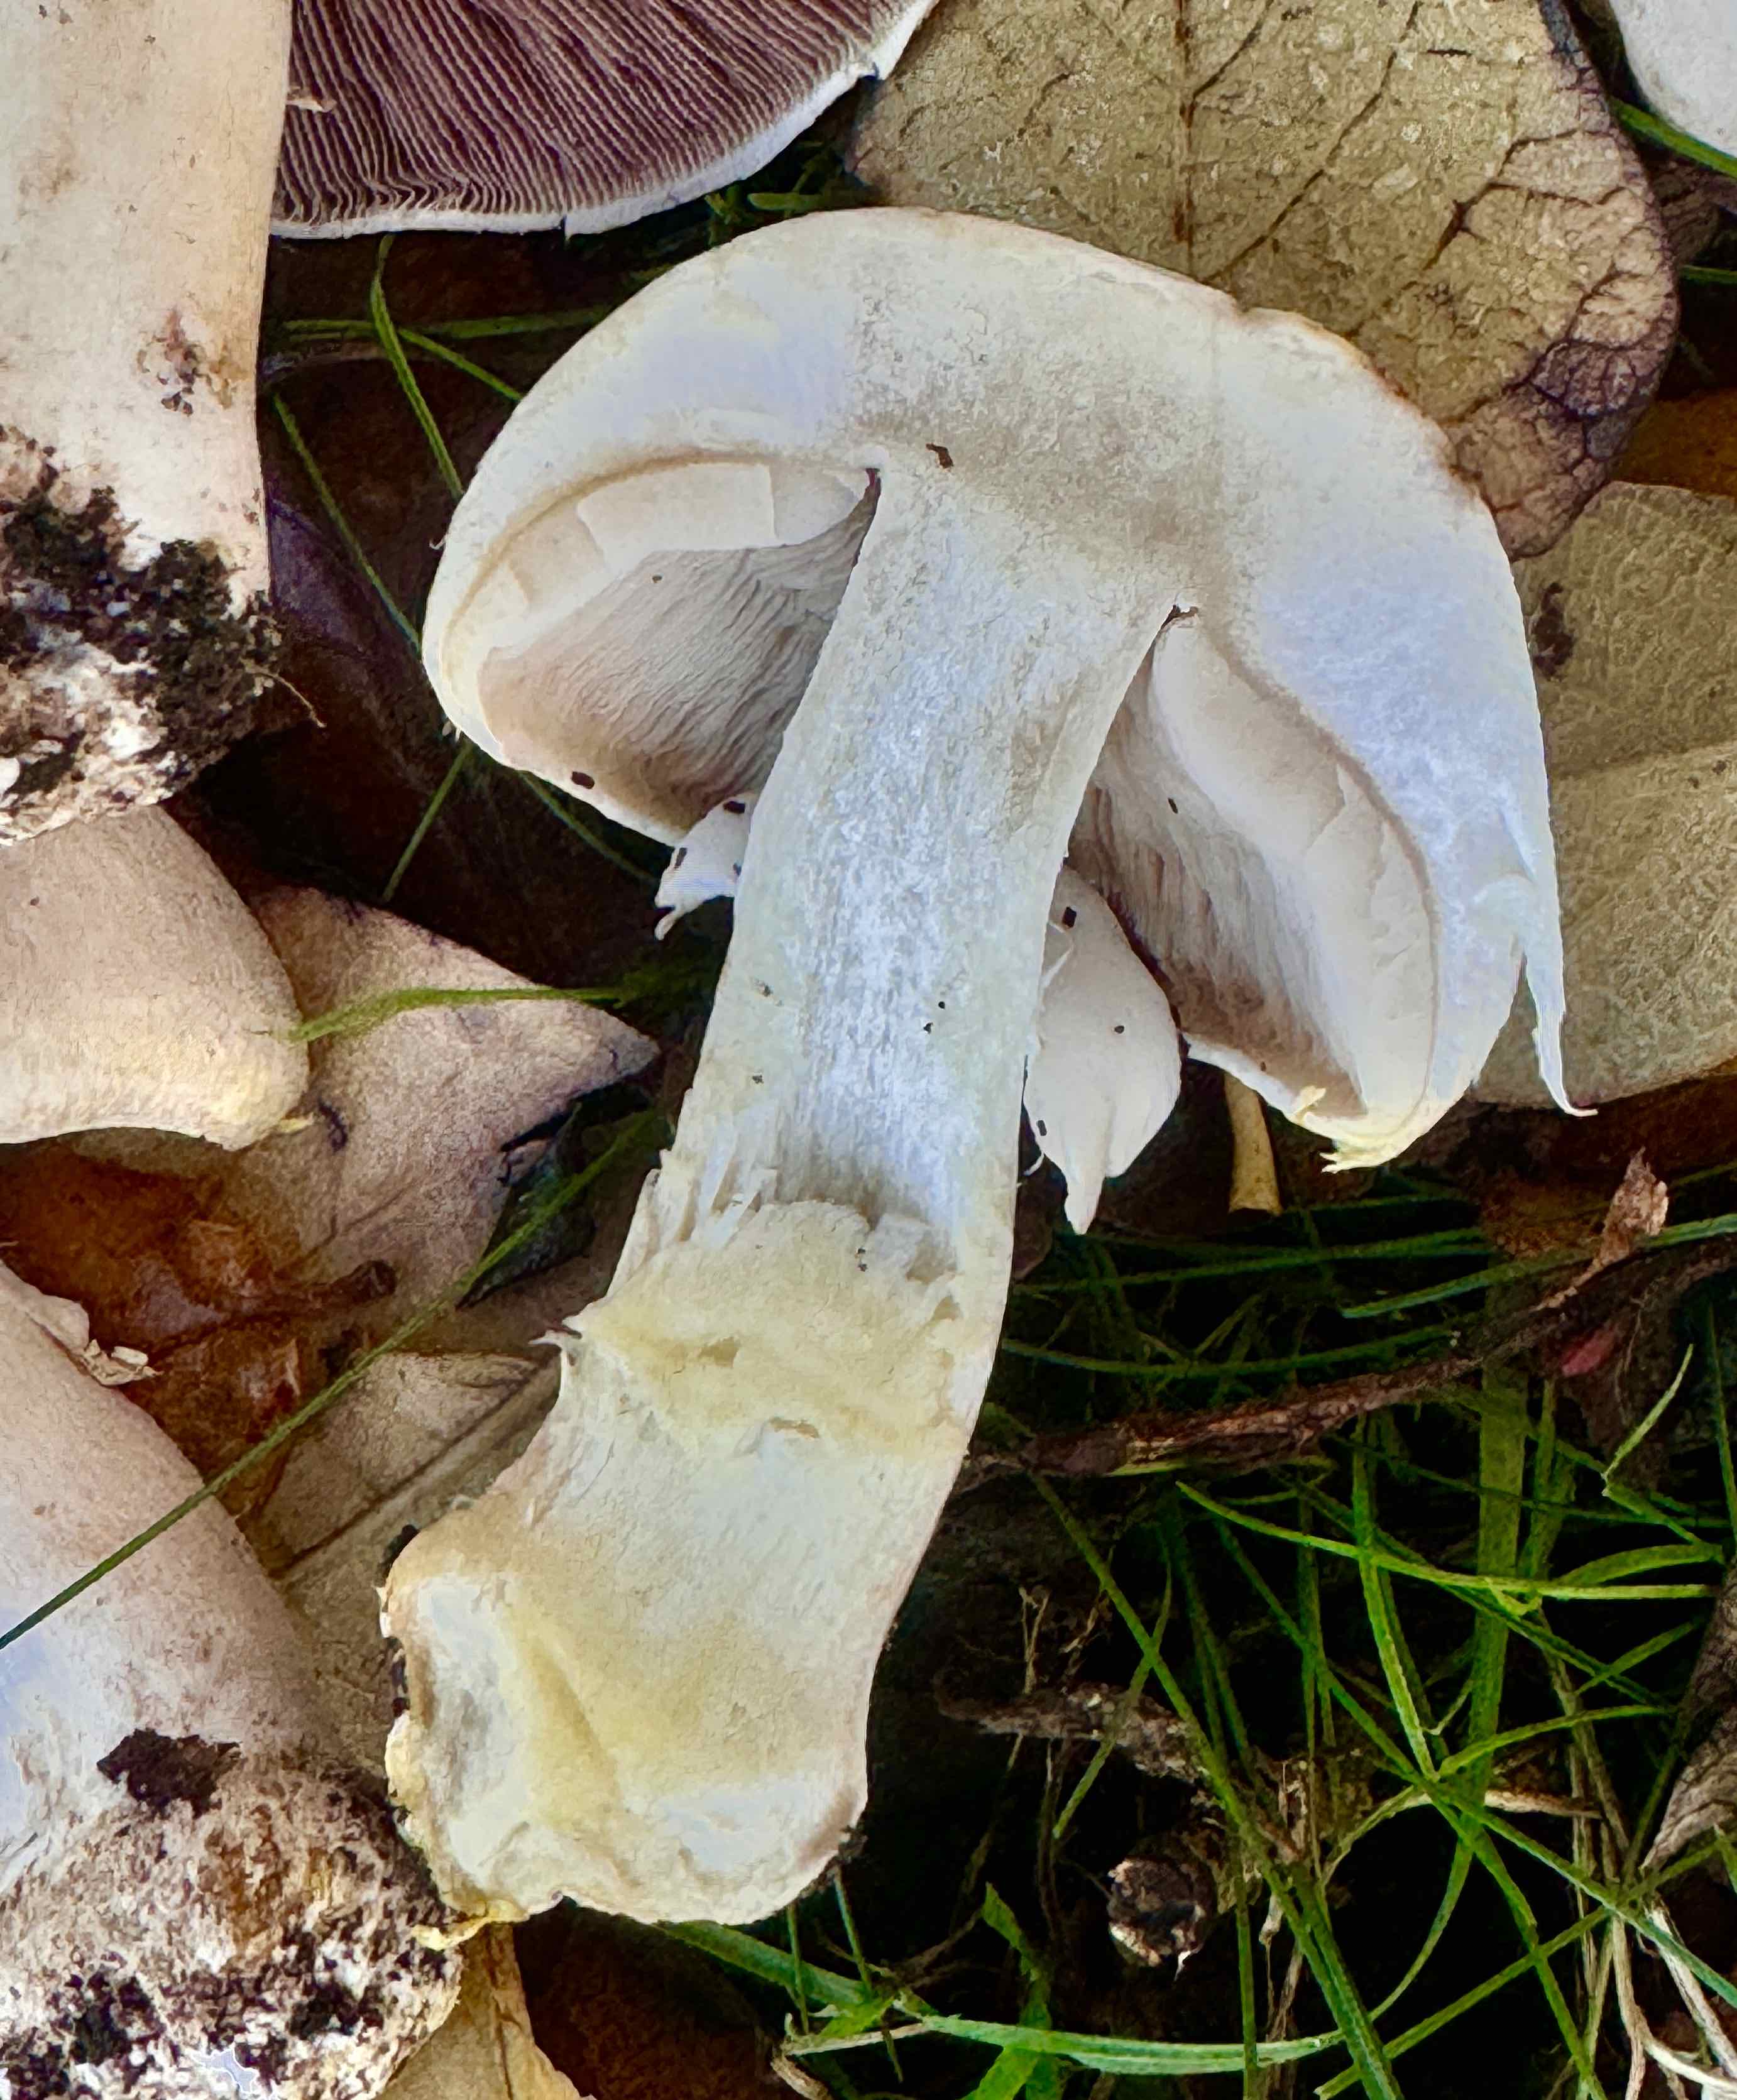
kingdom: Fungi
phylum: Basidiomycota
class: Agaricomycetes
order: Agaricales
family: Agaricaceae
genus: Agaricus
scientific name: Agaricus xanthodermus
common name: karbol-champignon
